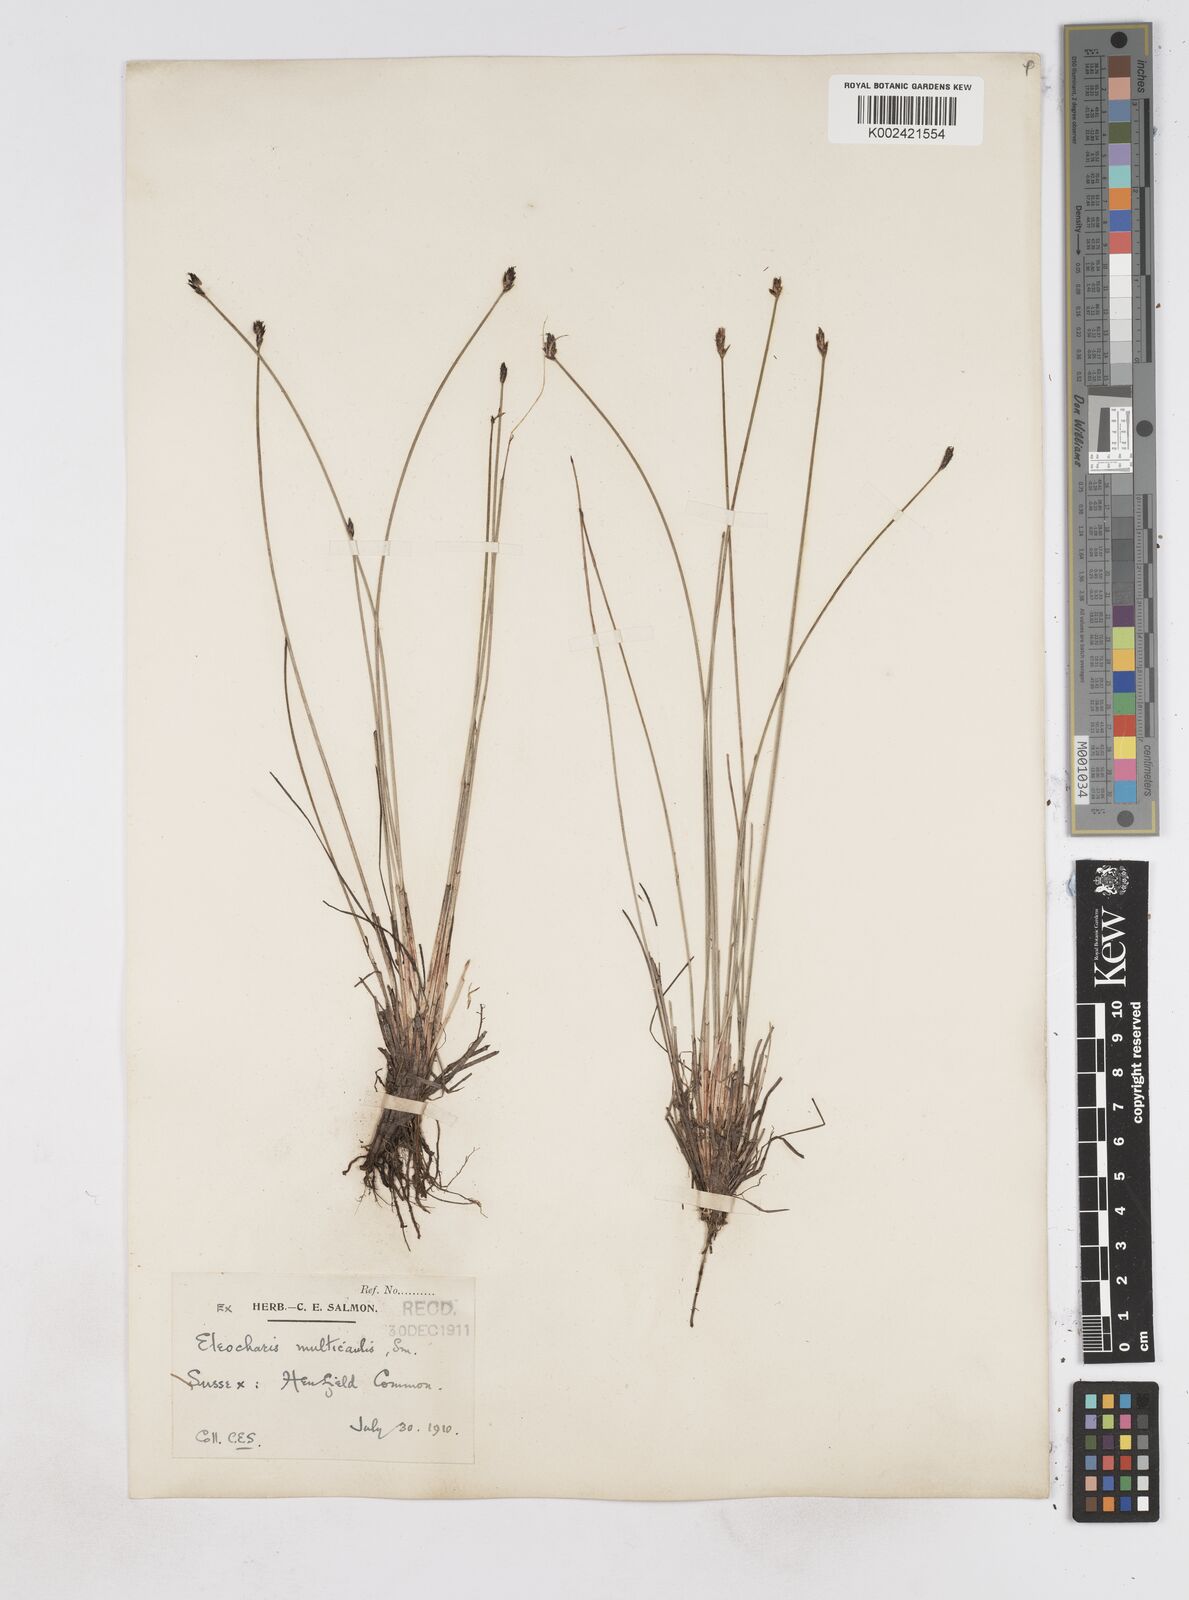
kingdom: Plantae
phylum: Tracheophyta
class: Liliopsida
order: Poales
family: Cyperaceae
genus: Eleocharis
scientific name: Eleocharis multicaulis
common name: Many-stalked spike-rush
